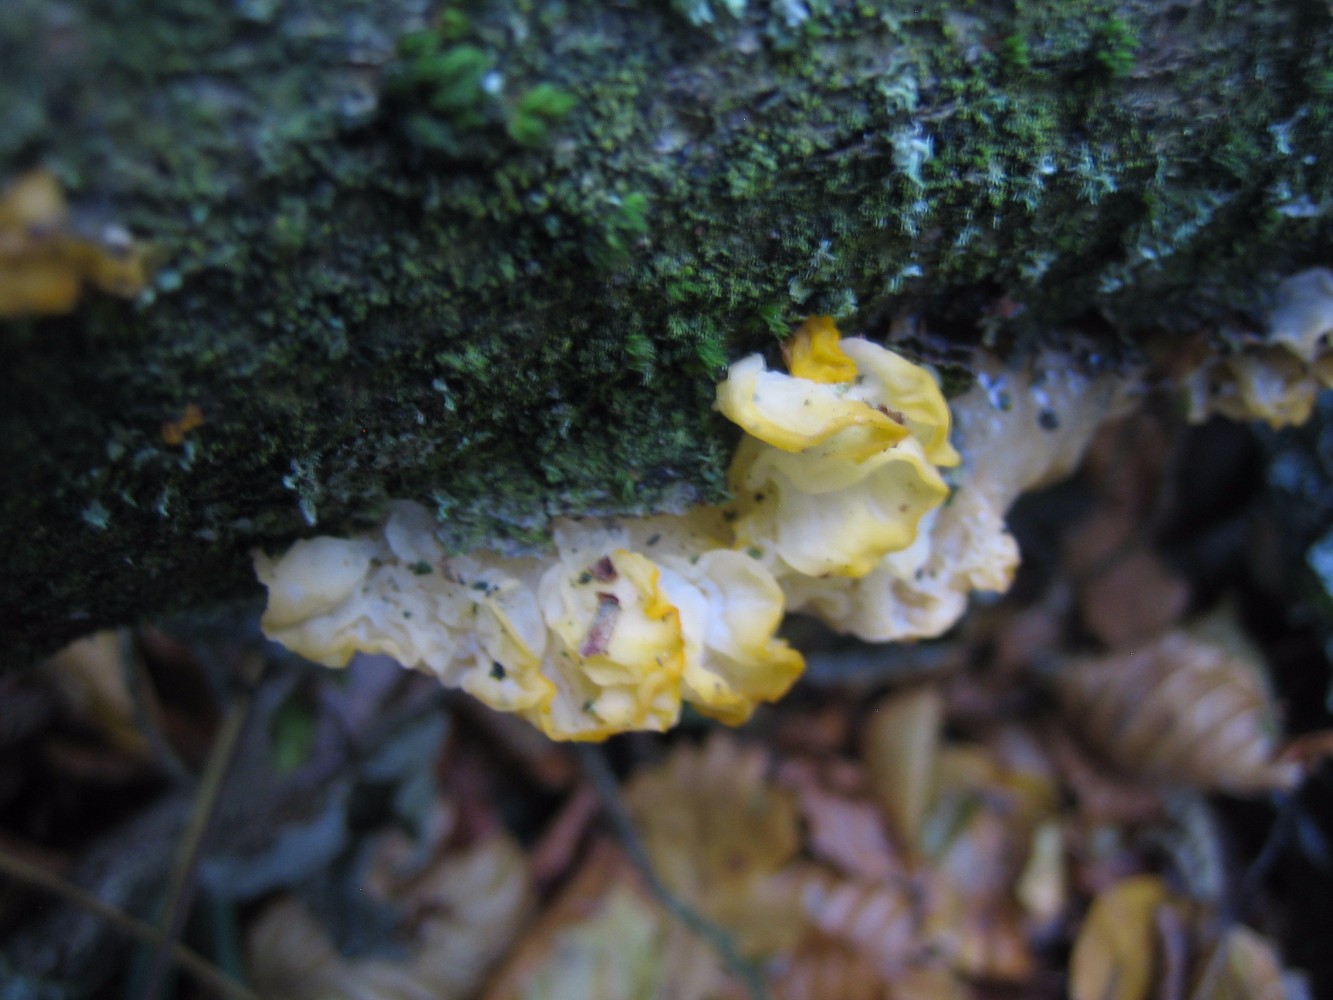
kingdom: Fungi
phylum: Basidiomycota
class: Tremellomycetes
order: Tremellales
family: Tremellaceae
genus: Tremella
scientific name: Tremella mesenterica
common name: gul bævresvamp
